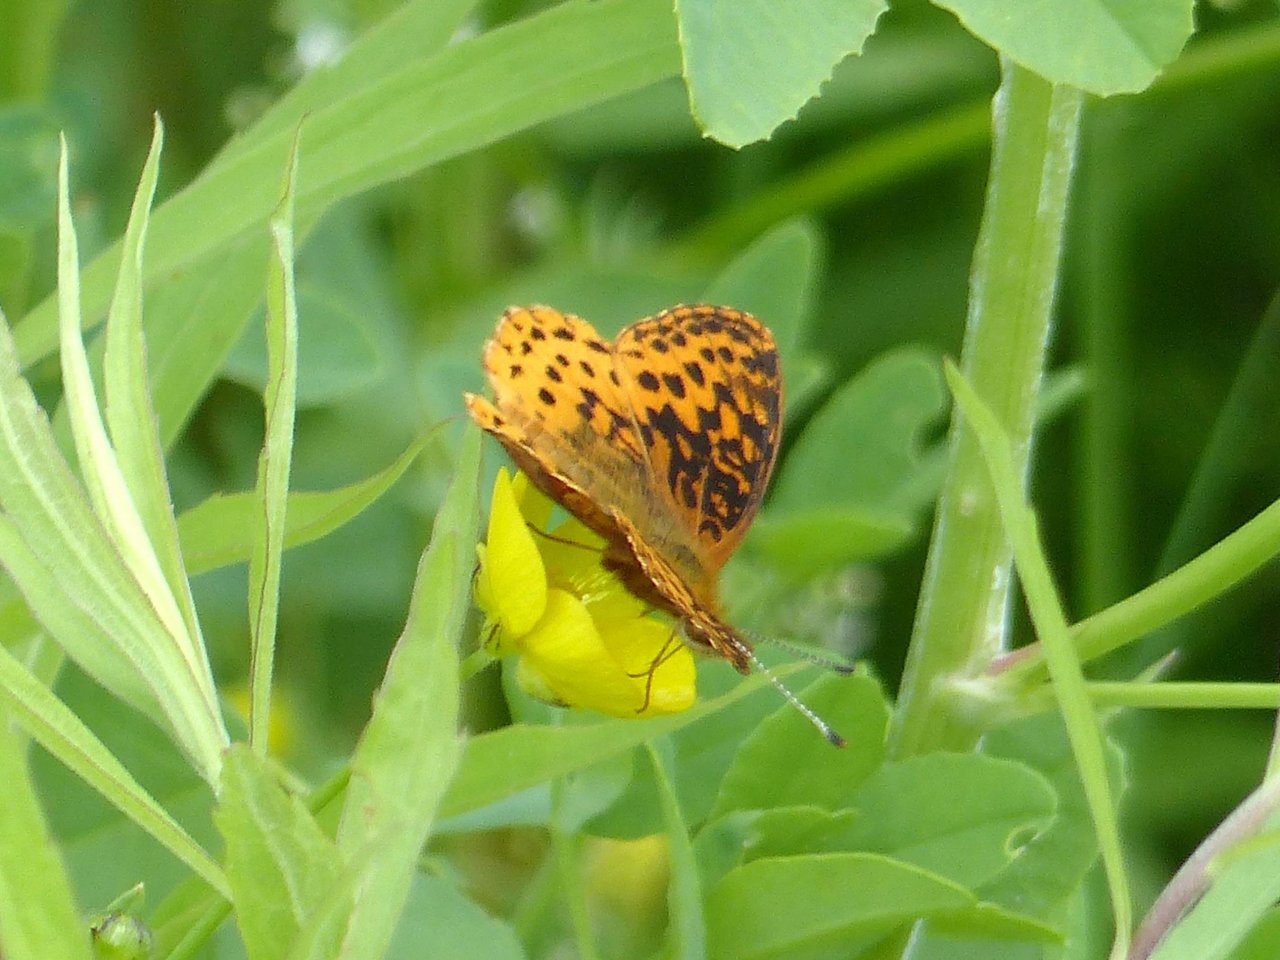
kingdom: Animalia
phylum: Arthropoda
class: Insecta
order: Lepidoptera
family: Nymphalidae
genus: Clossiana
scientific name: Clossiana toddi
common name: Meadow Fritillary
